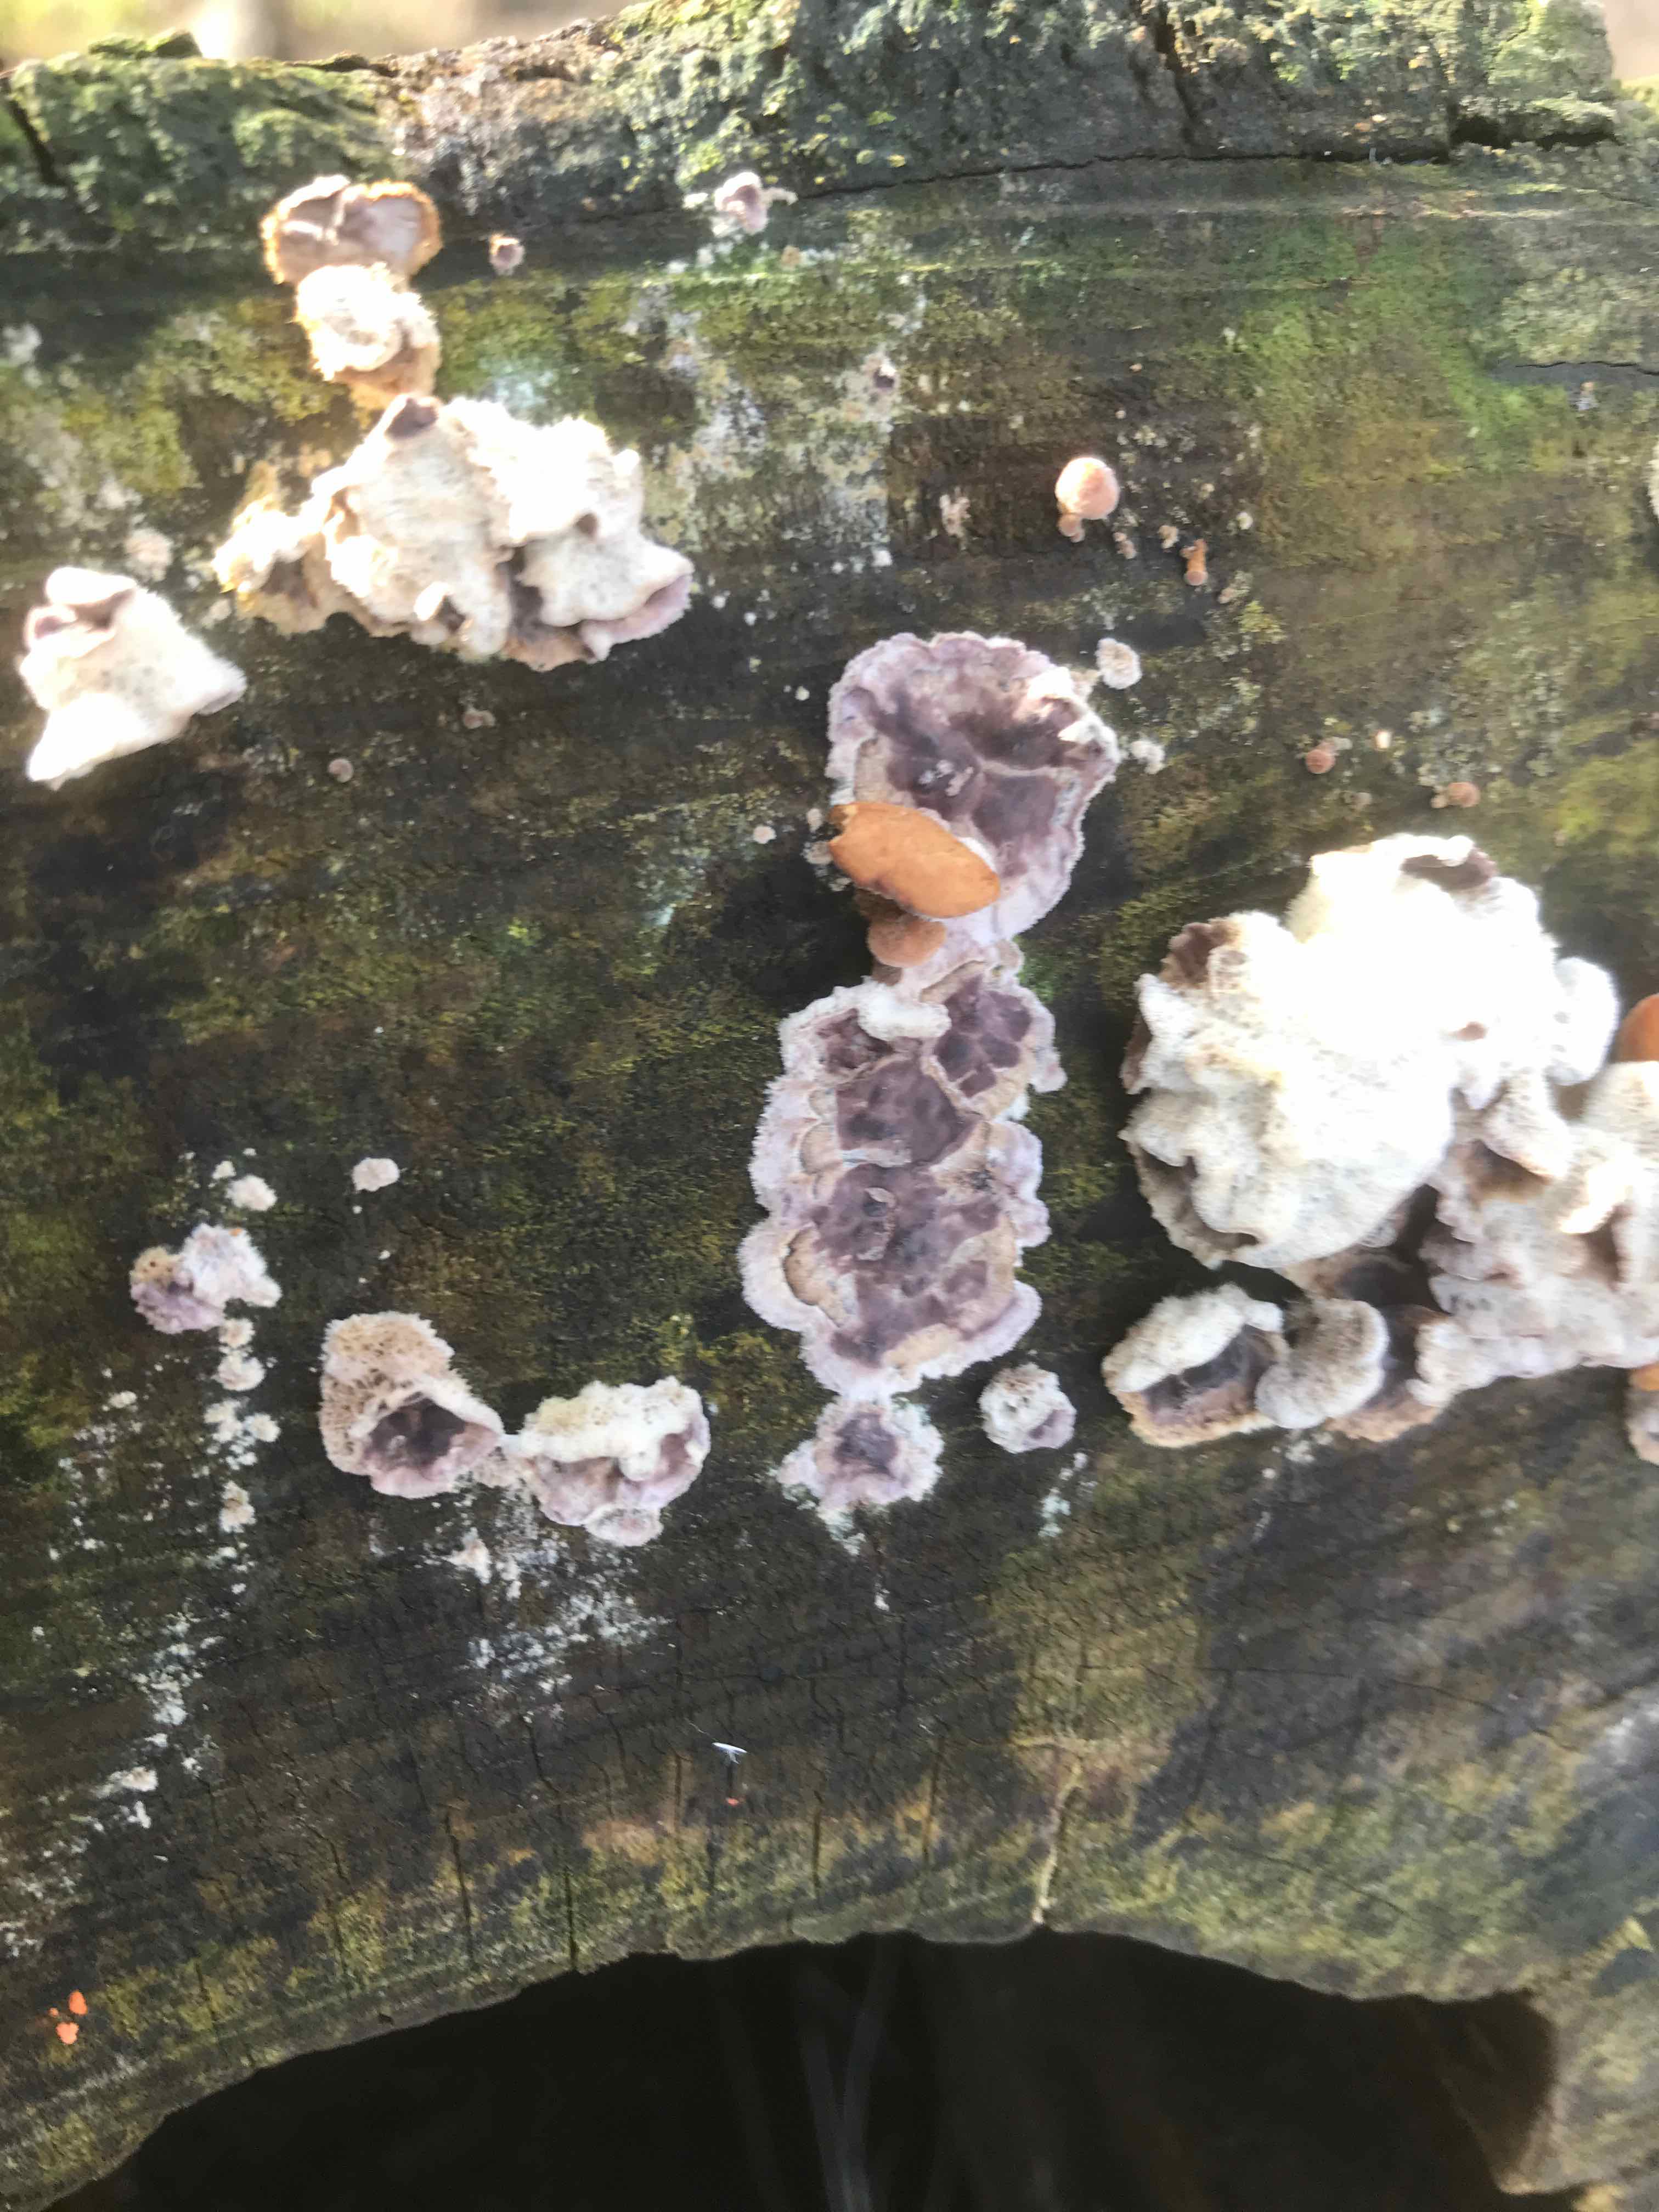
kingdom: Fungi
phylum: Basidiomycota
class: Agaricomycetes
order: Agaricales
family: Cyphellaceae
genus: Chondrostereum
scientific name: Chondrostereum purpureum
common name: purpurlædersvamp
